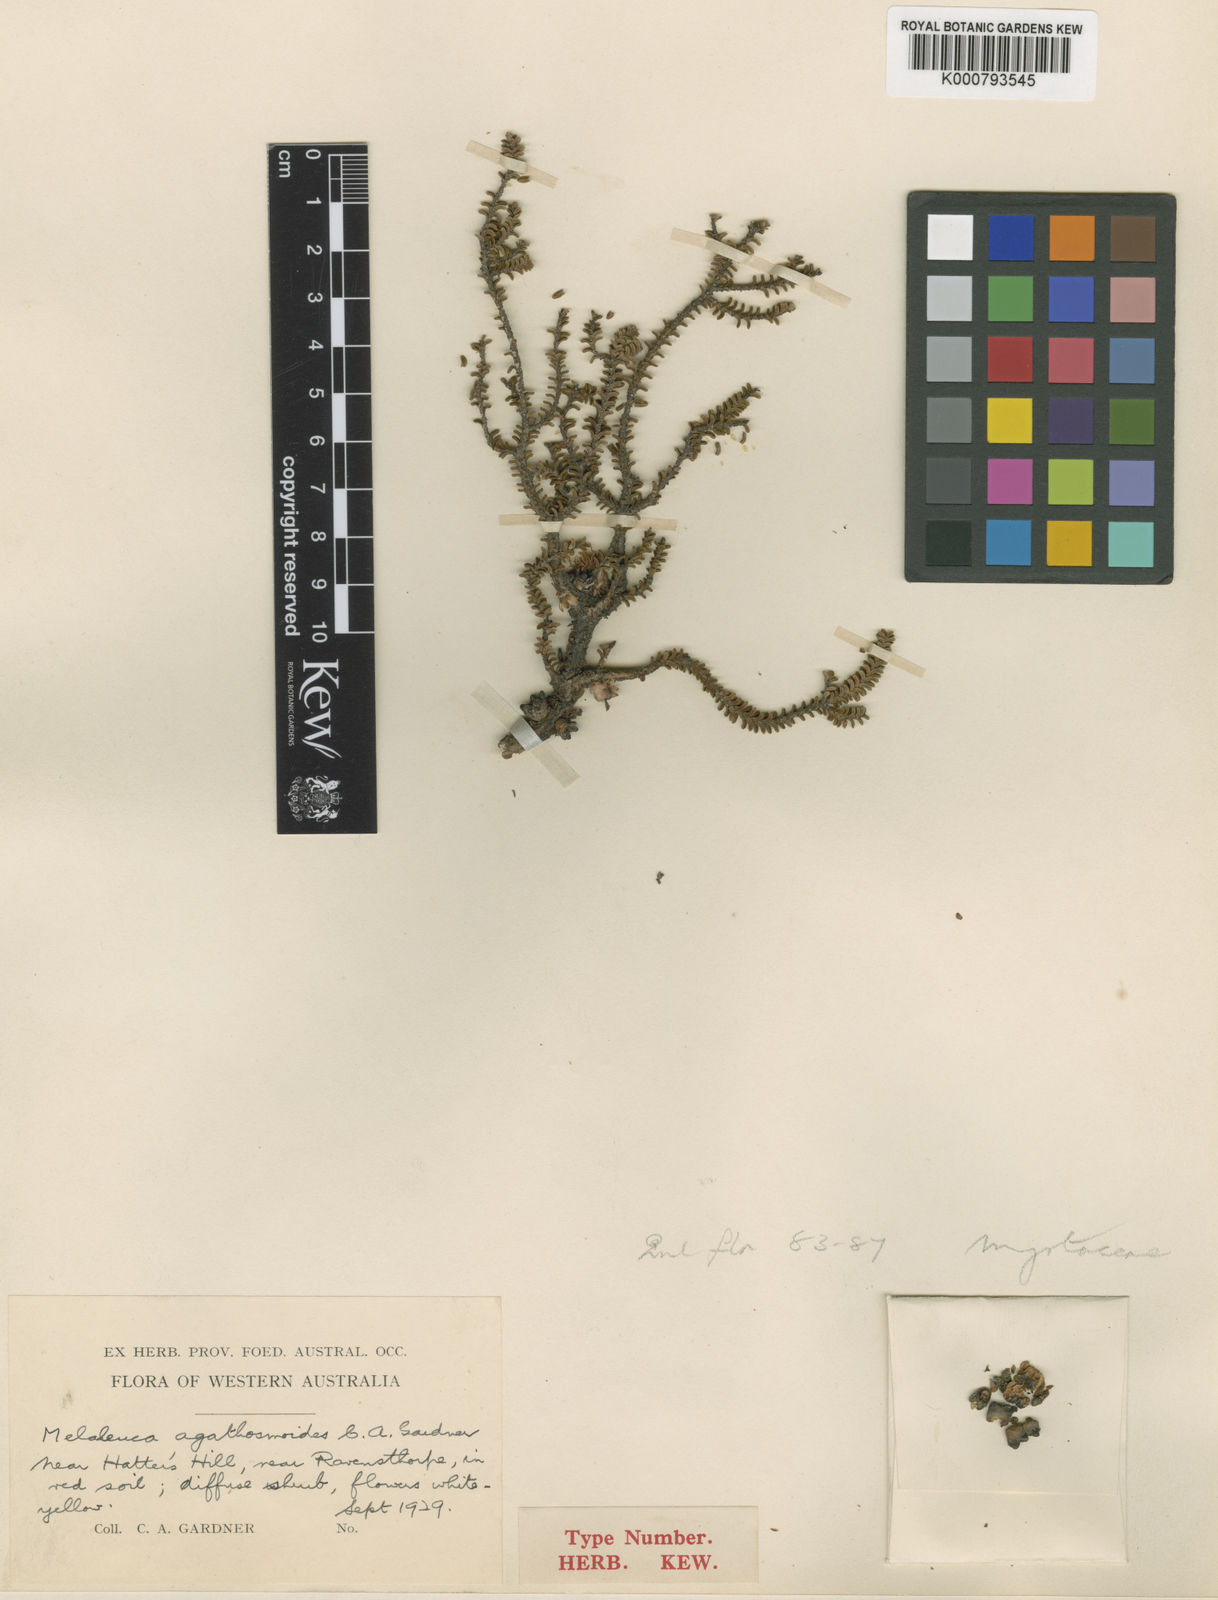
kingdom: Plantae
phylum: Tracheophyta
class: Magnoliopsida
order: Myrtales
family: Myrtaceae
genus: Melaleuca
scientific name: Melaleuca agathosmoides
